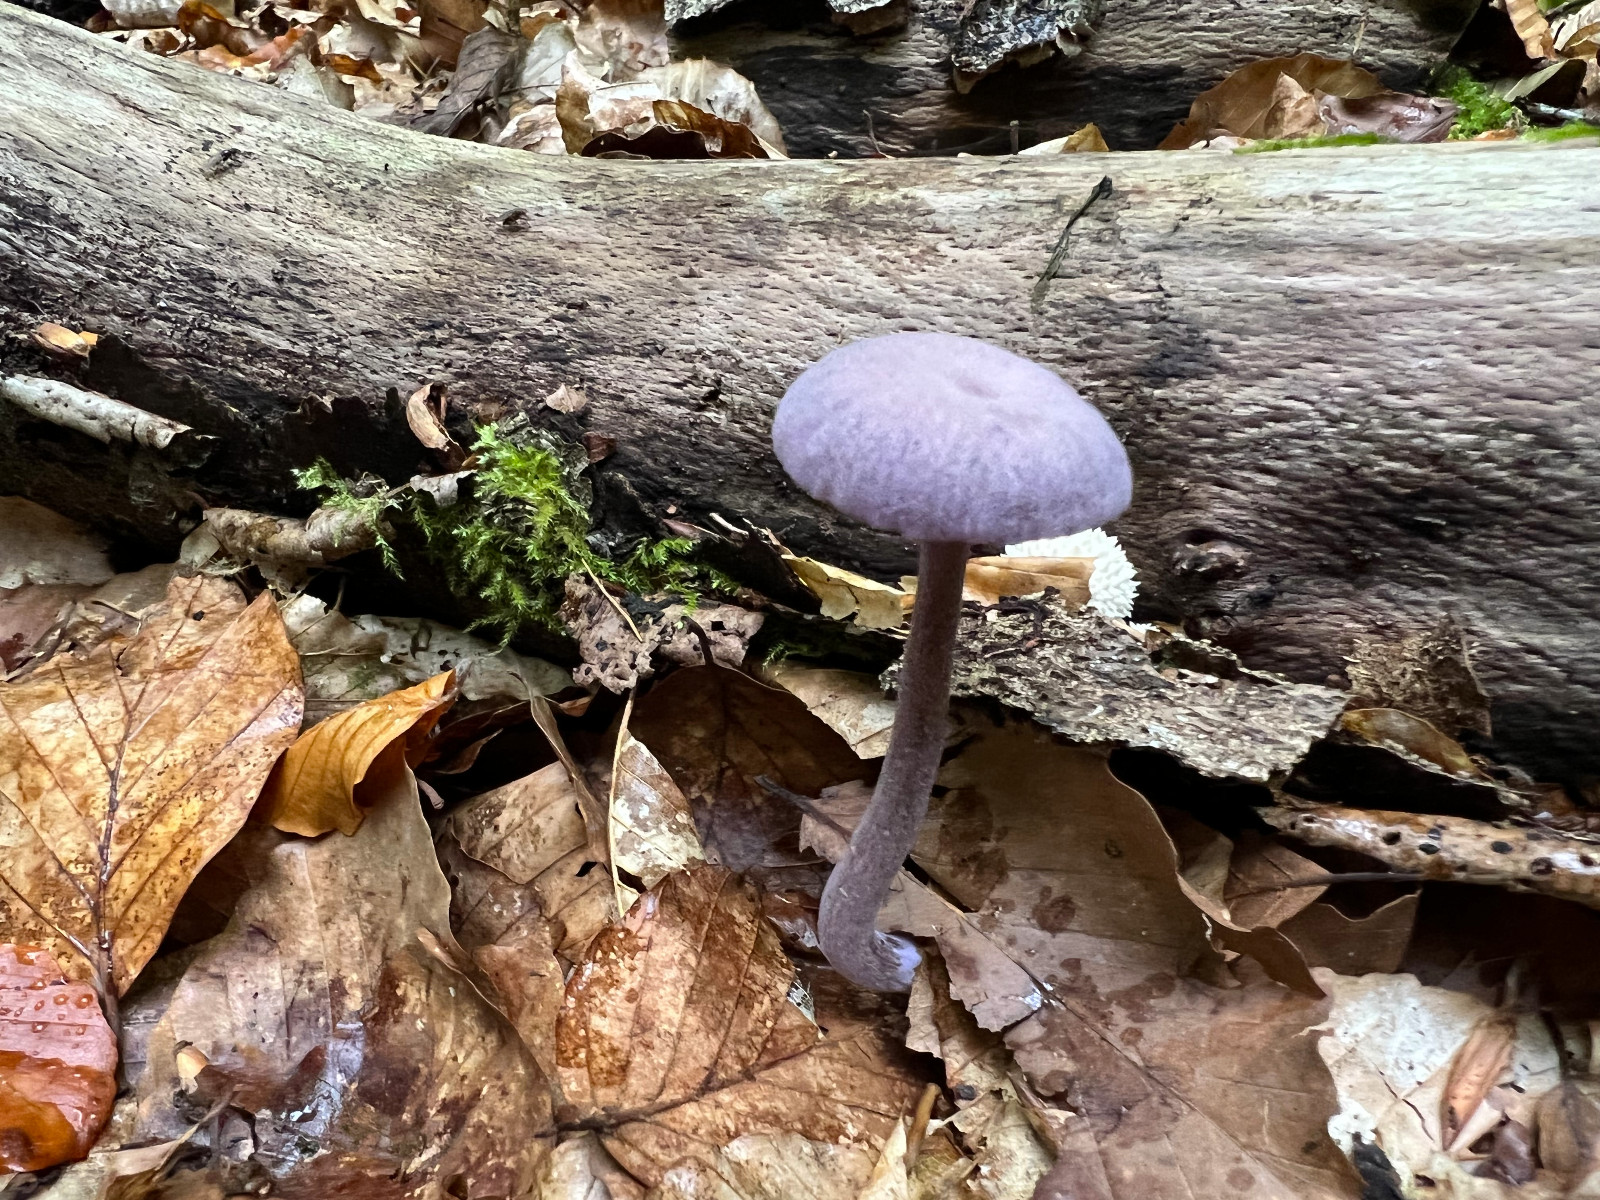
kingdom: Fungi
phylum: Basidiomycota
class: Agaricomycetes
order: Agaricales
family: Hydnangiaceae
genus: Laccaria
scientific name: Laccaria amethystina
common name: violet ametysthat
